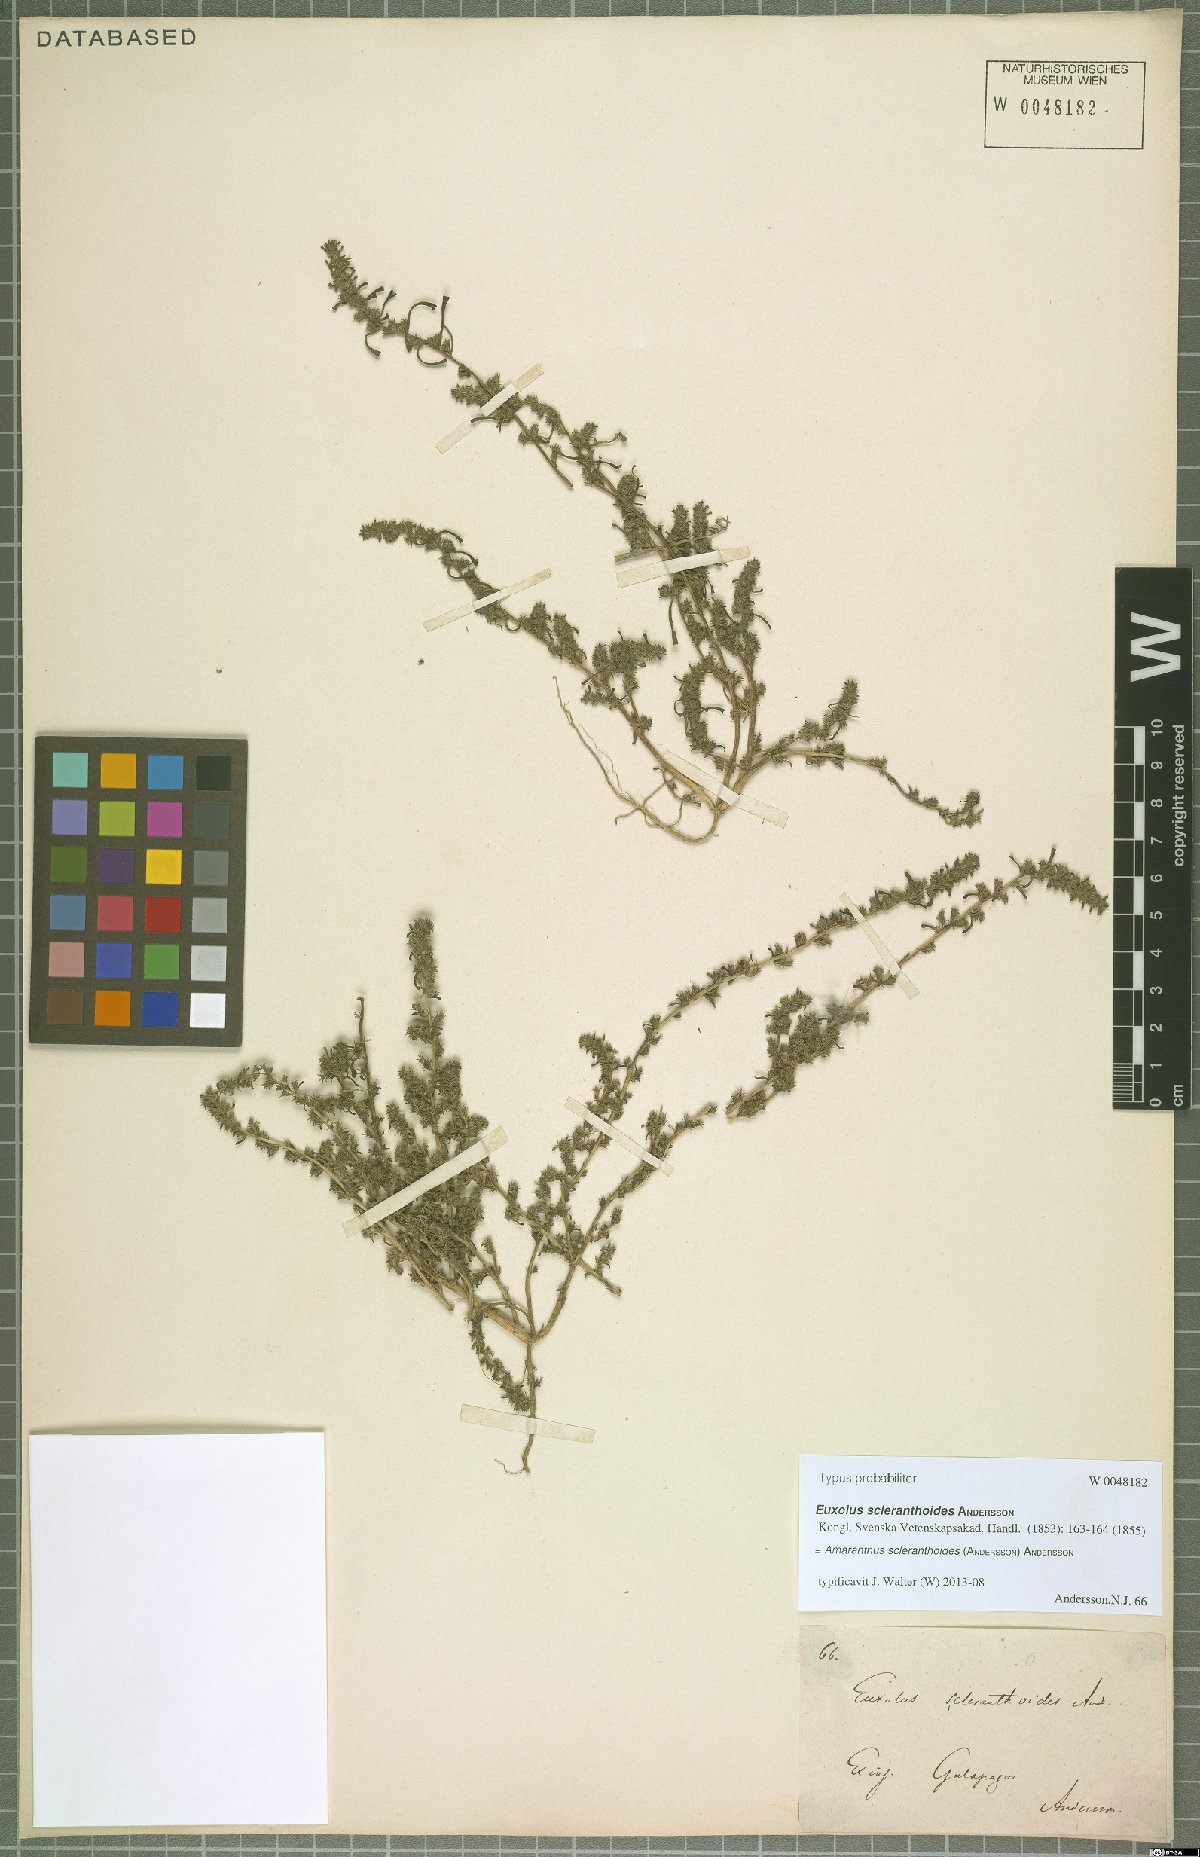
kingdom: Plantae
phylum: Tracheophyta
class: Magnoliopsida
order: Caryophyllales
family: Amaranthaceae
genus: Amaranthus
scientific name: Amaranthus sclerantoides
